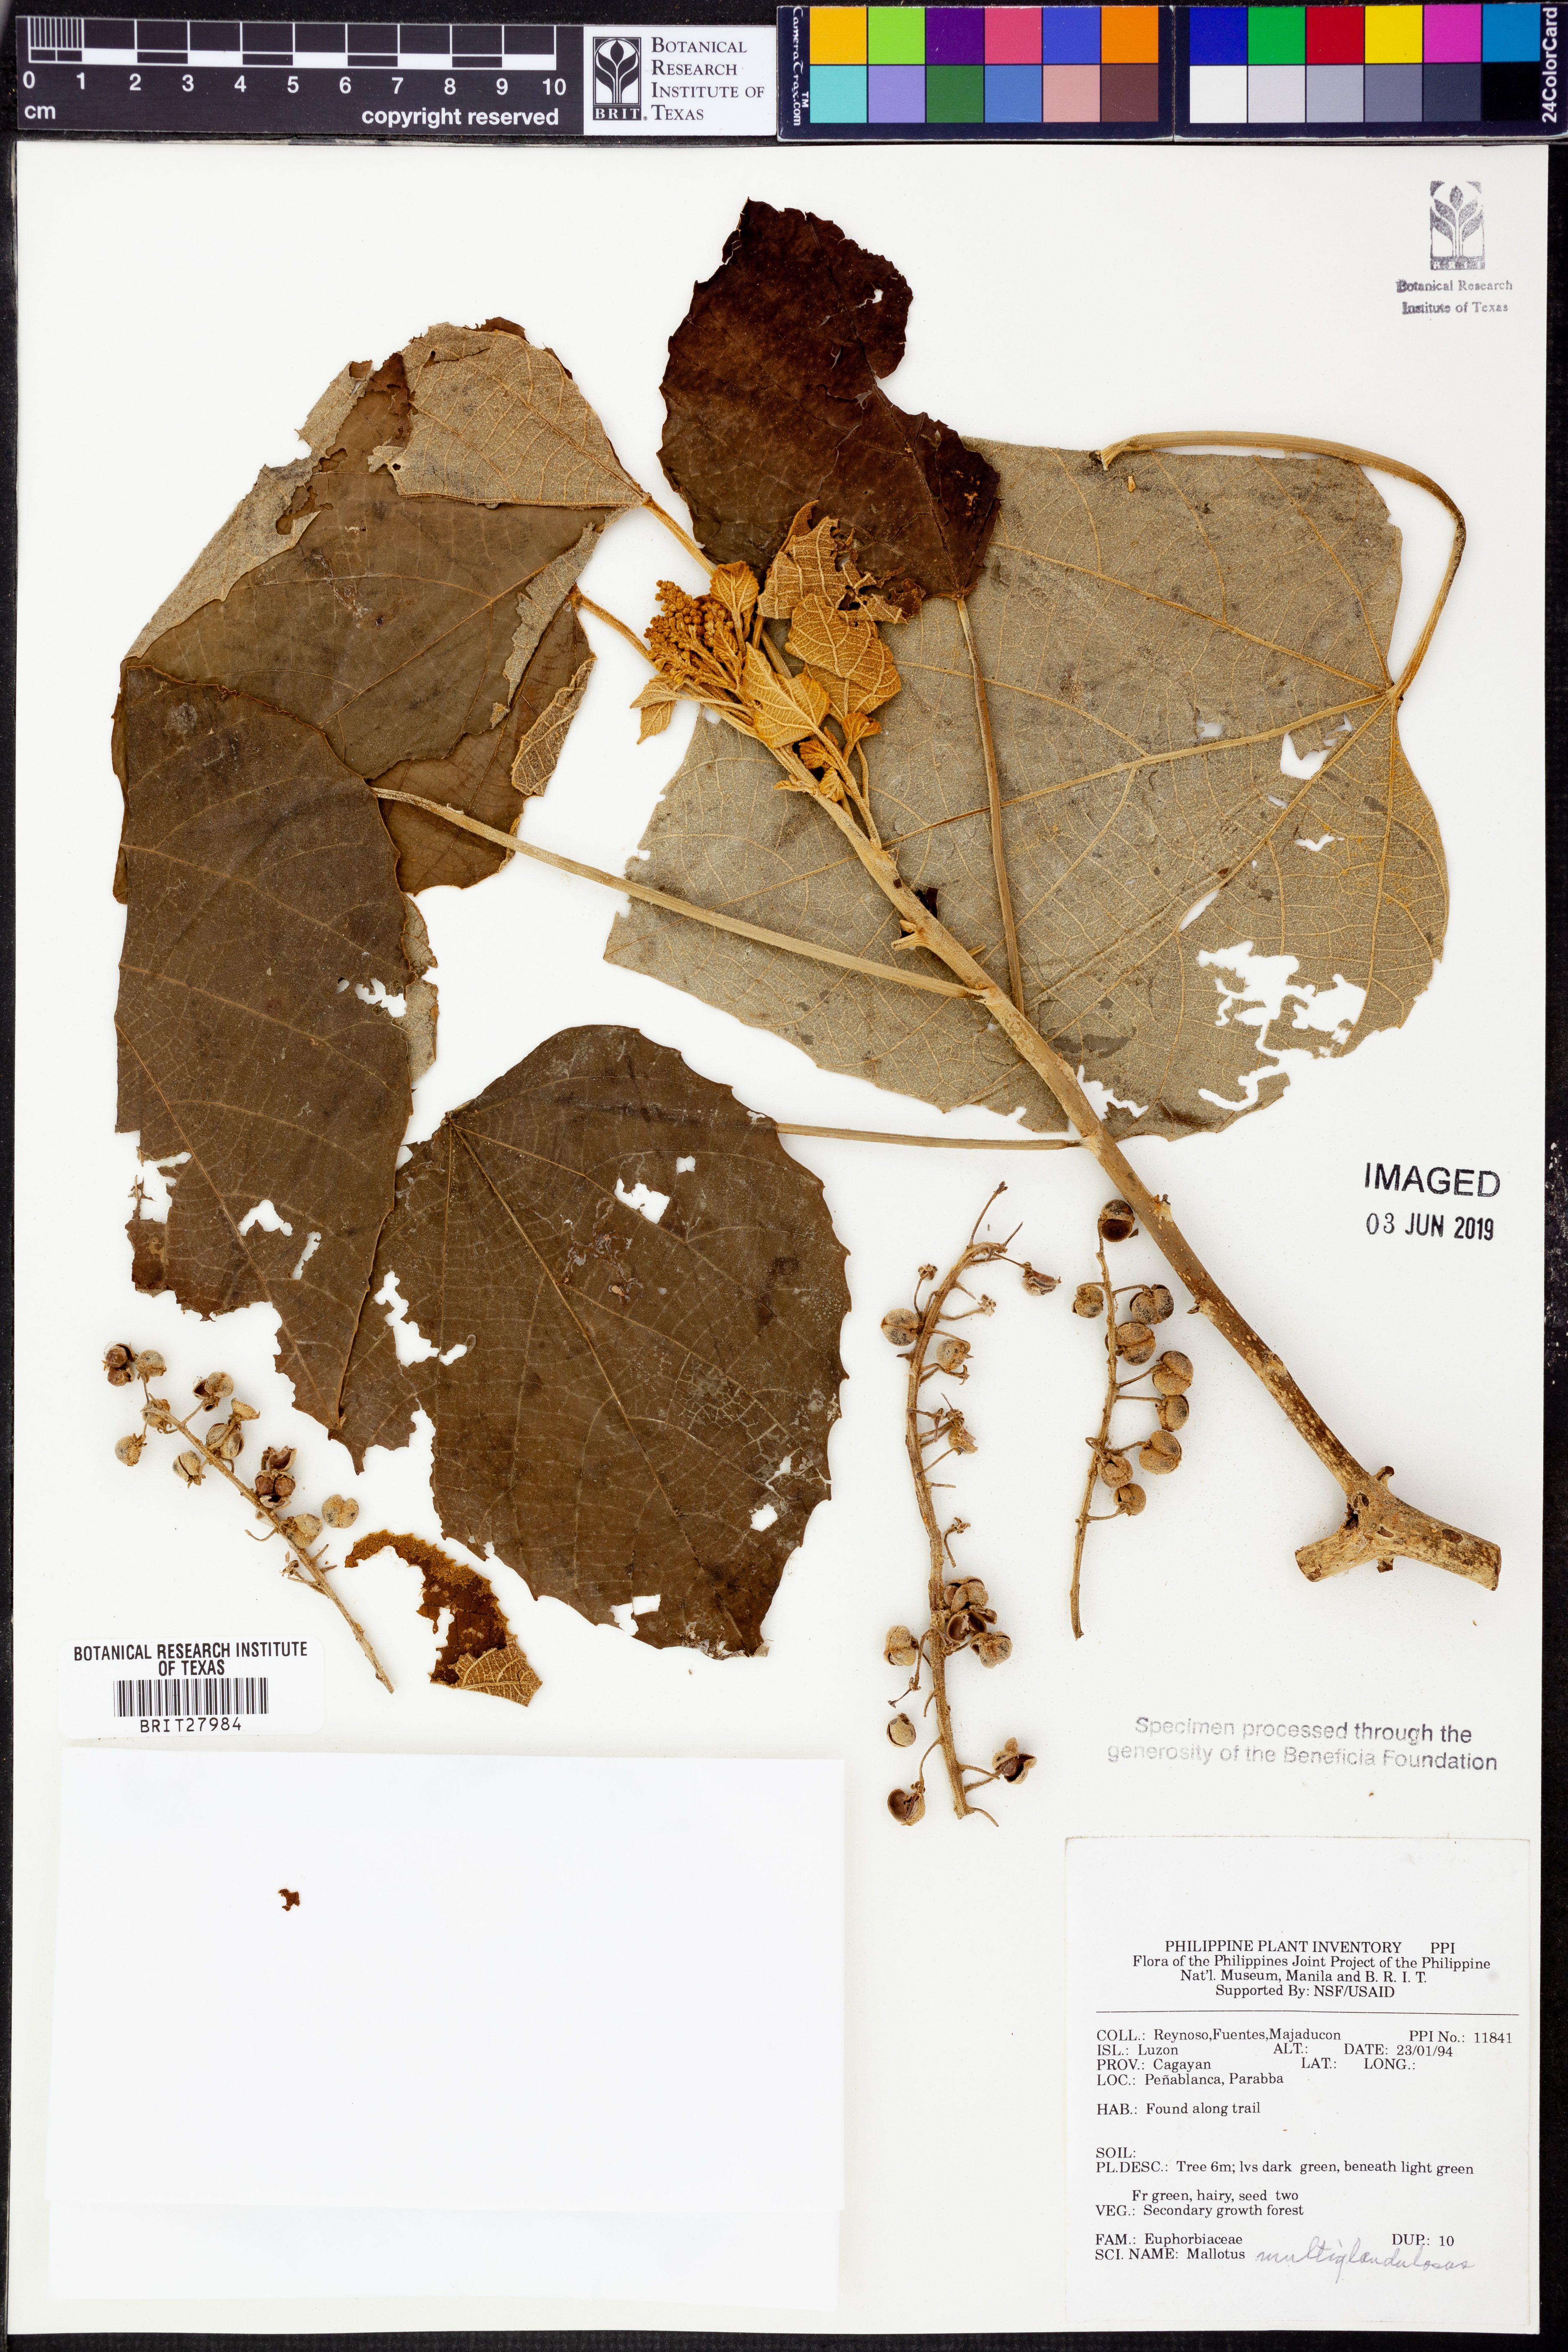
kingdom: Plantae
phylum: Tracheophyta
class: Magnoliopsida
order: Malpighiales
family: Euphorbiaceae
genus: Melanolepis
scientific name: Melanolepis multiglandulosa
